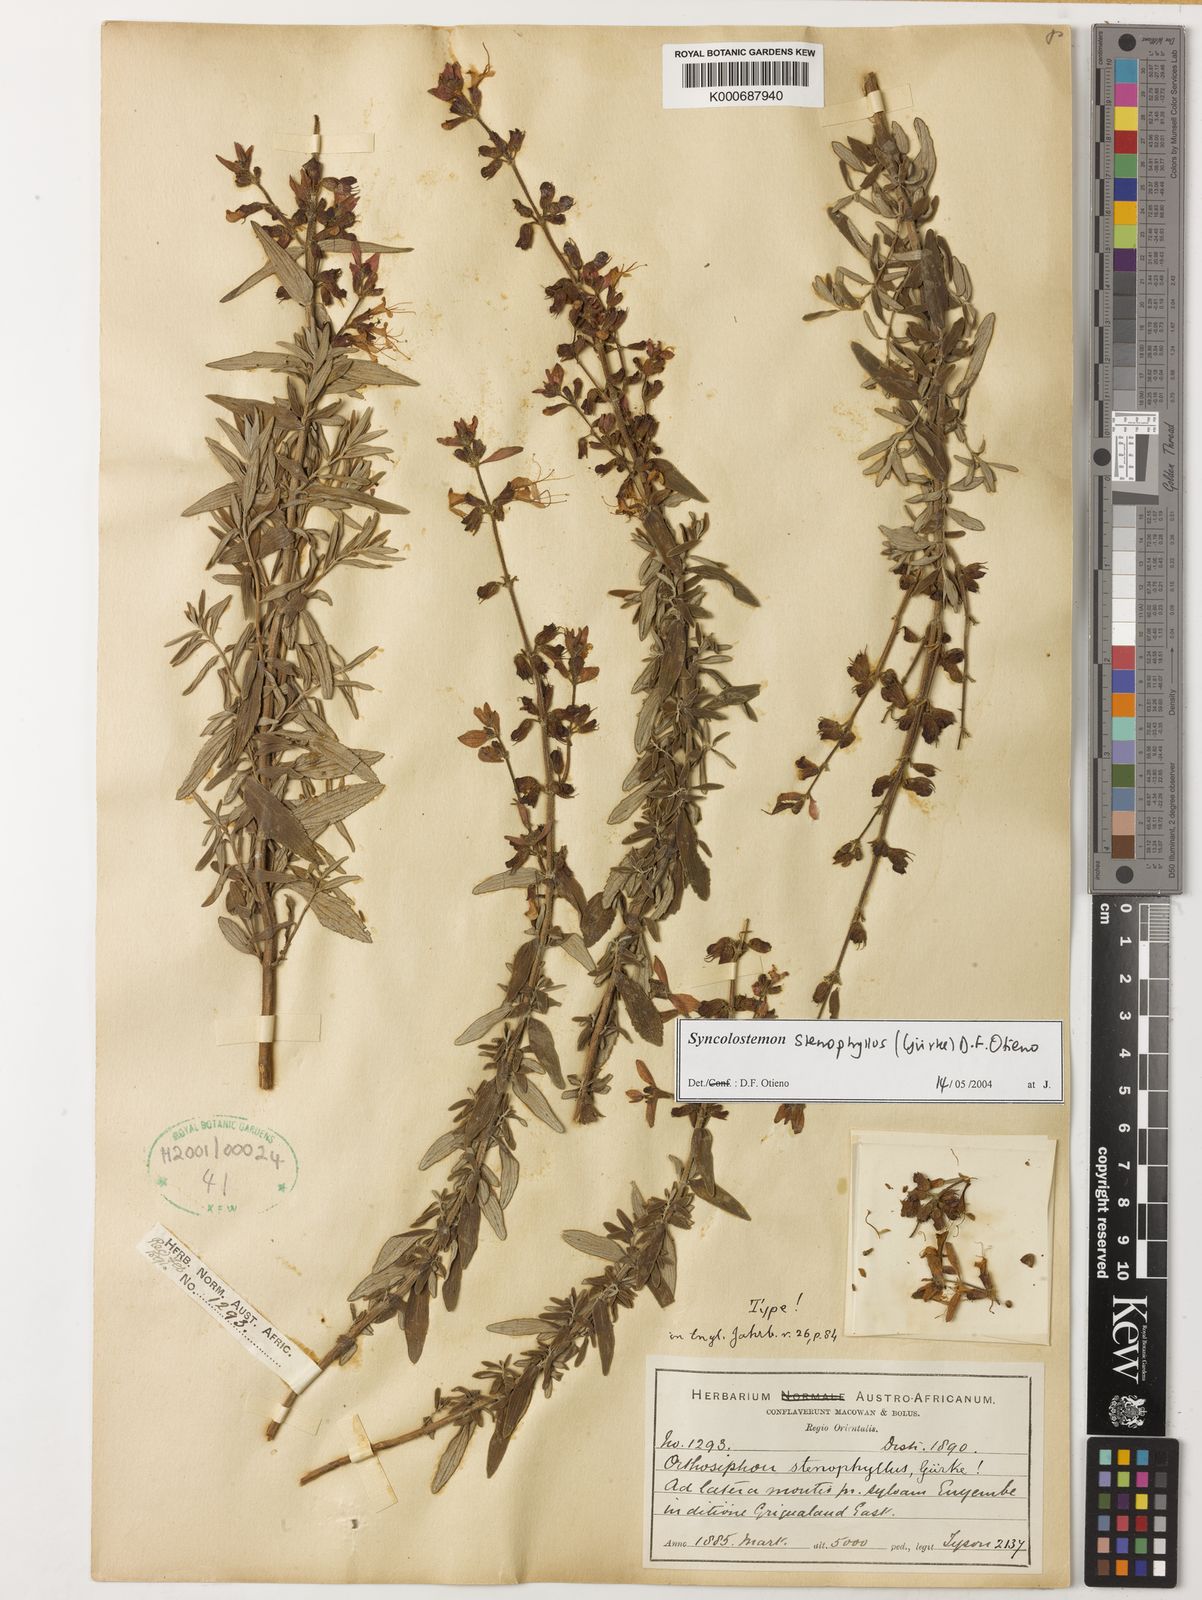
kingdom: Plantae
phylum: Tracheophyta
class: Magnoliopsida
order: Lamiales
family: Lamiaceae
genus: Syncolostemon
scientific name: Syncolostemon stenophyllus
